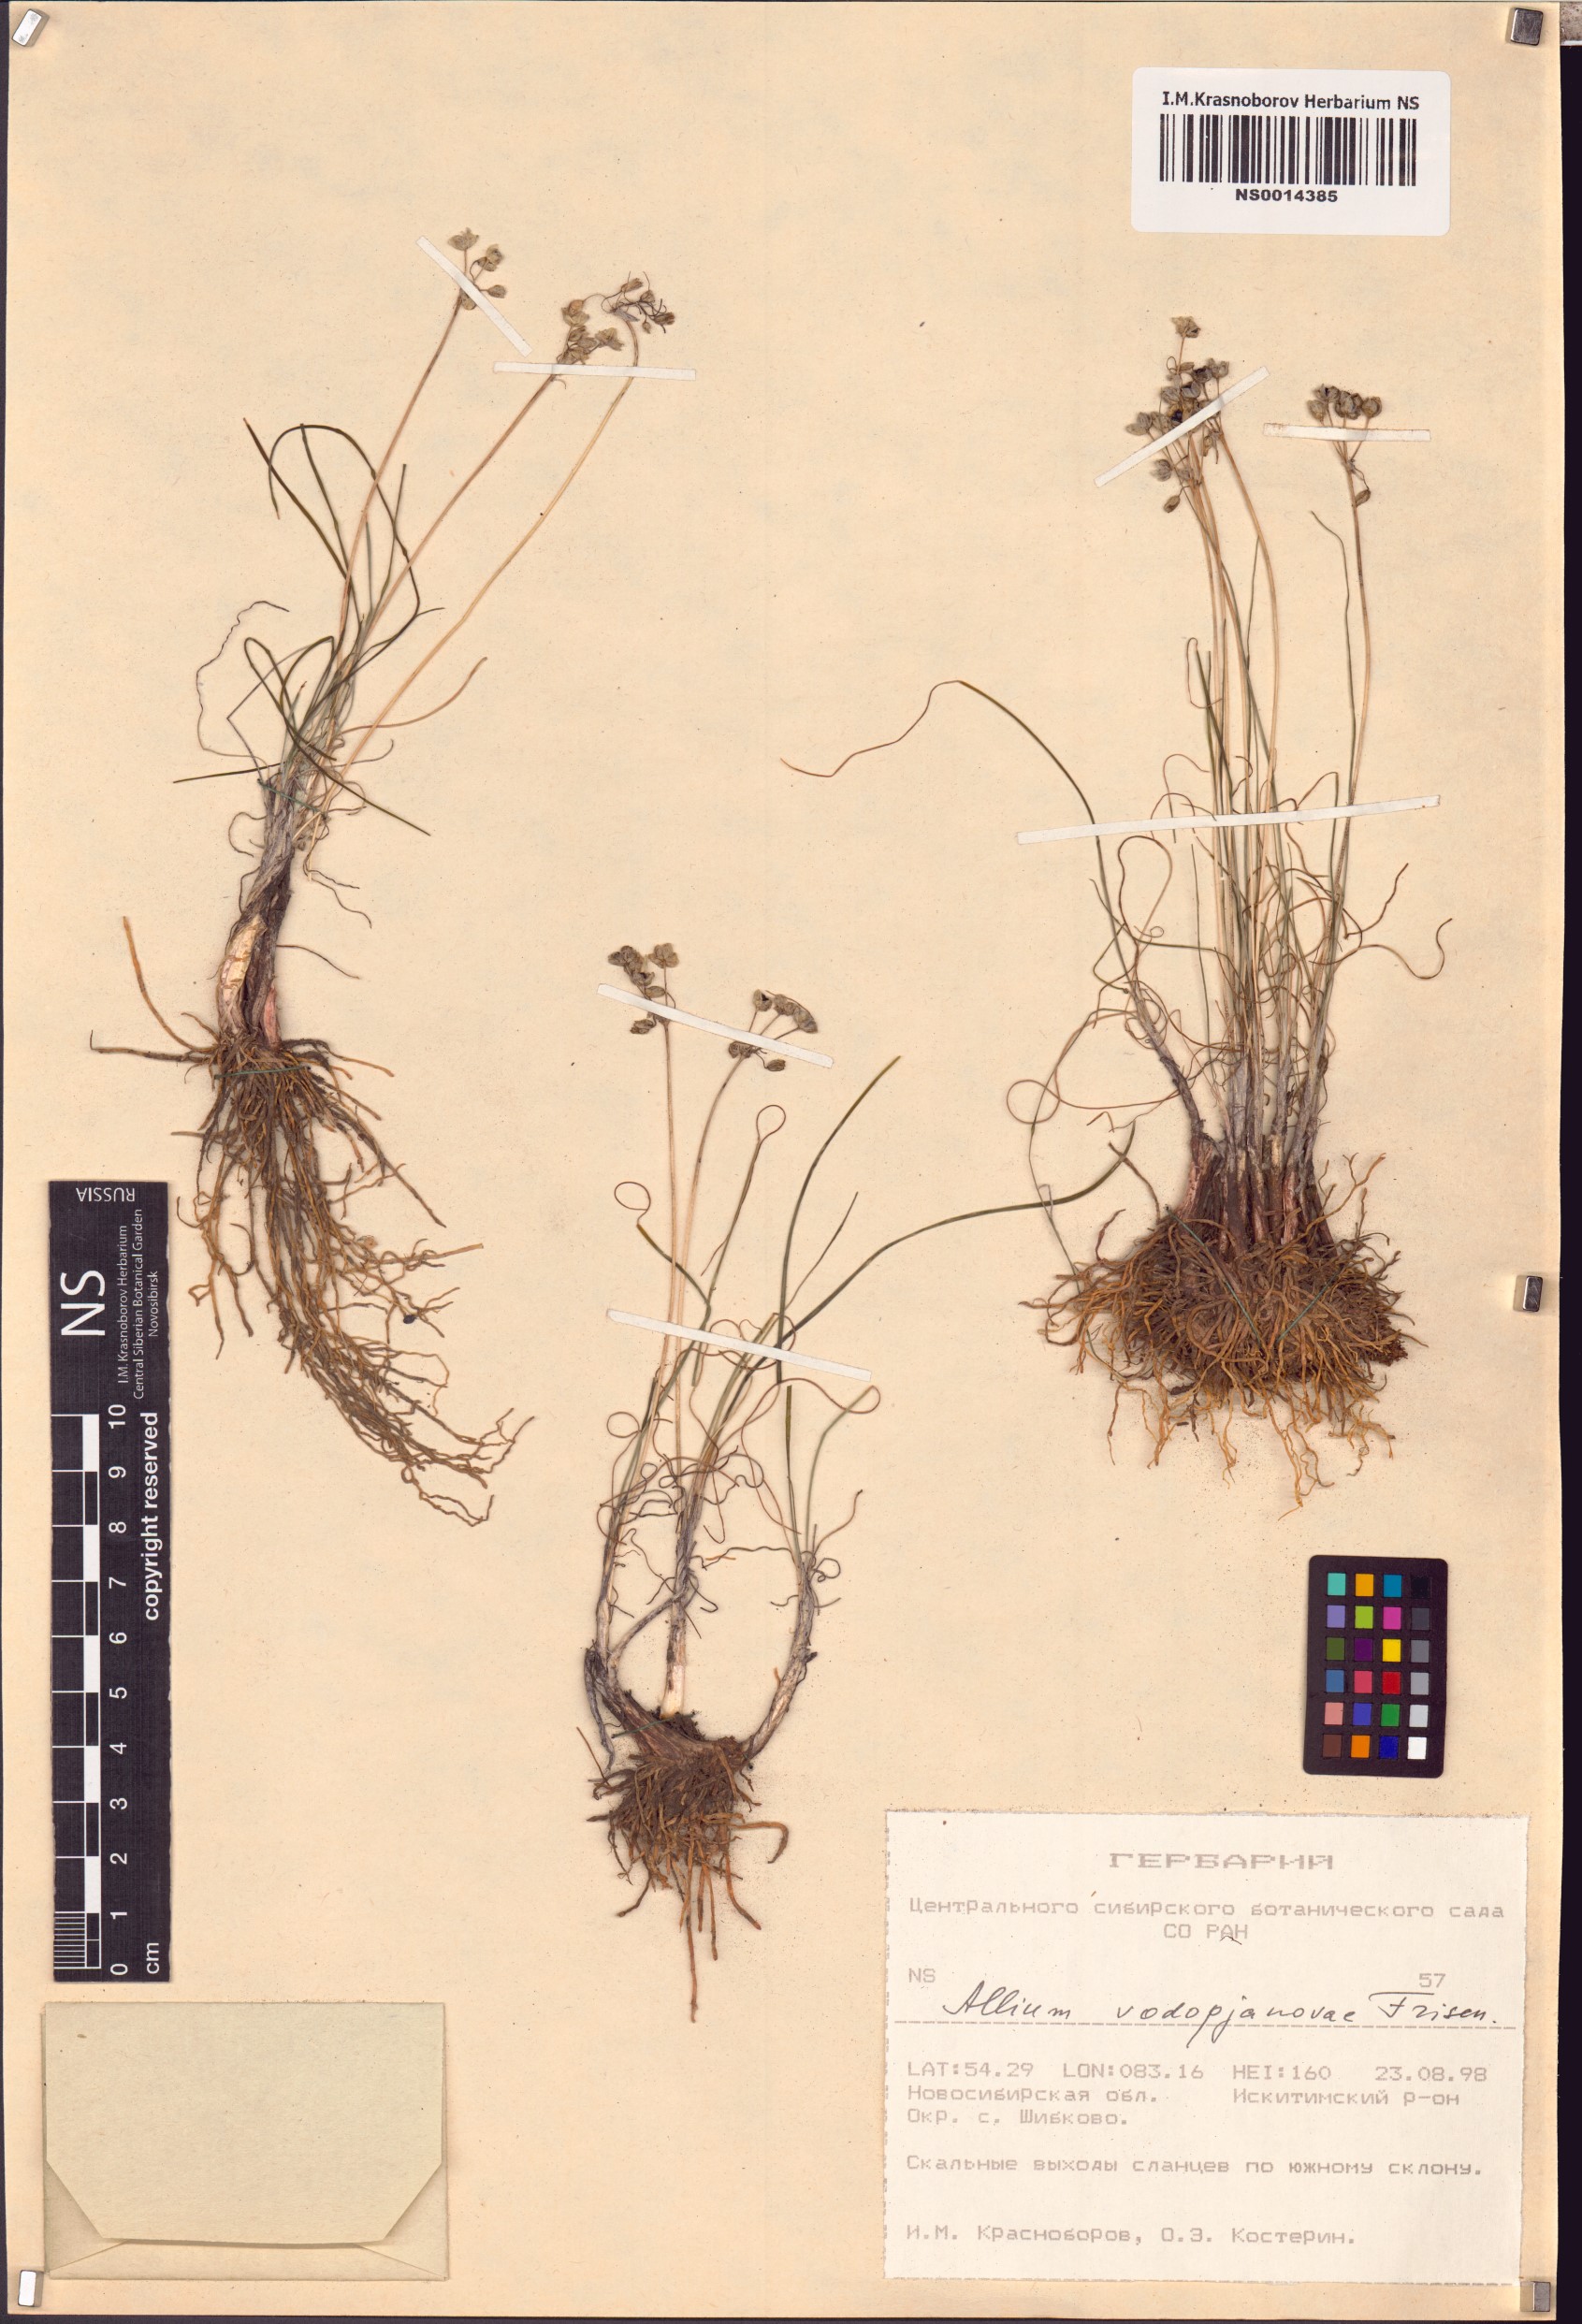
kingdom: Plantae
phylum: Tracheophyta
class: Liliopsida
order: Asparagales
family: Amaryllidaceae
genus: Allium
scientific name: Allium vodopjanovae
